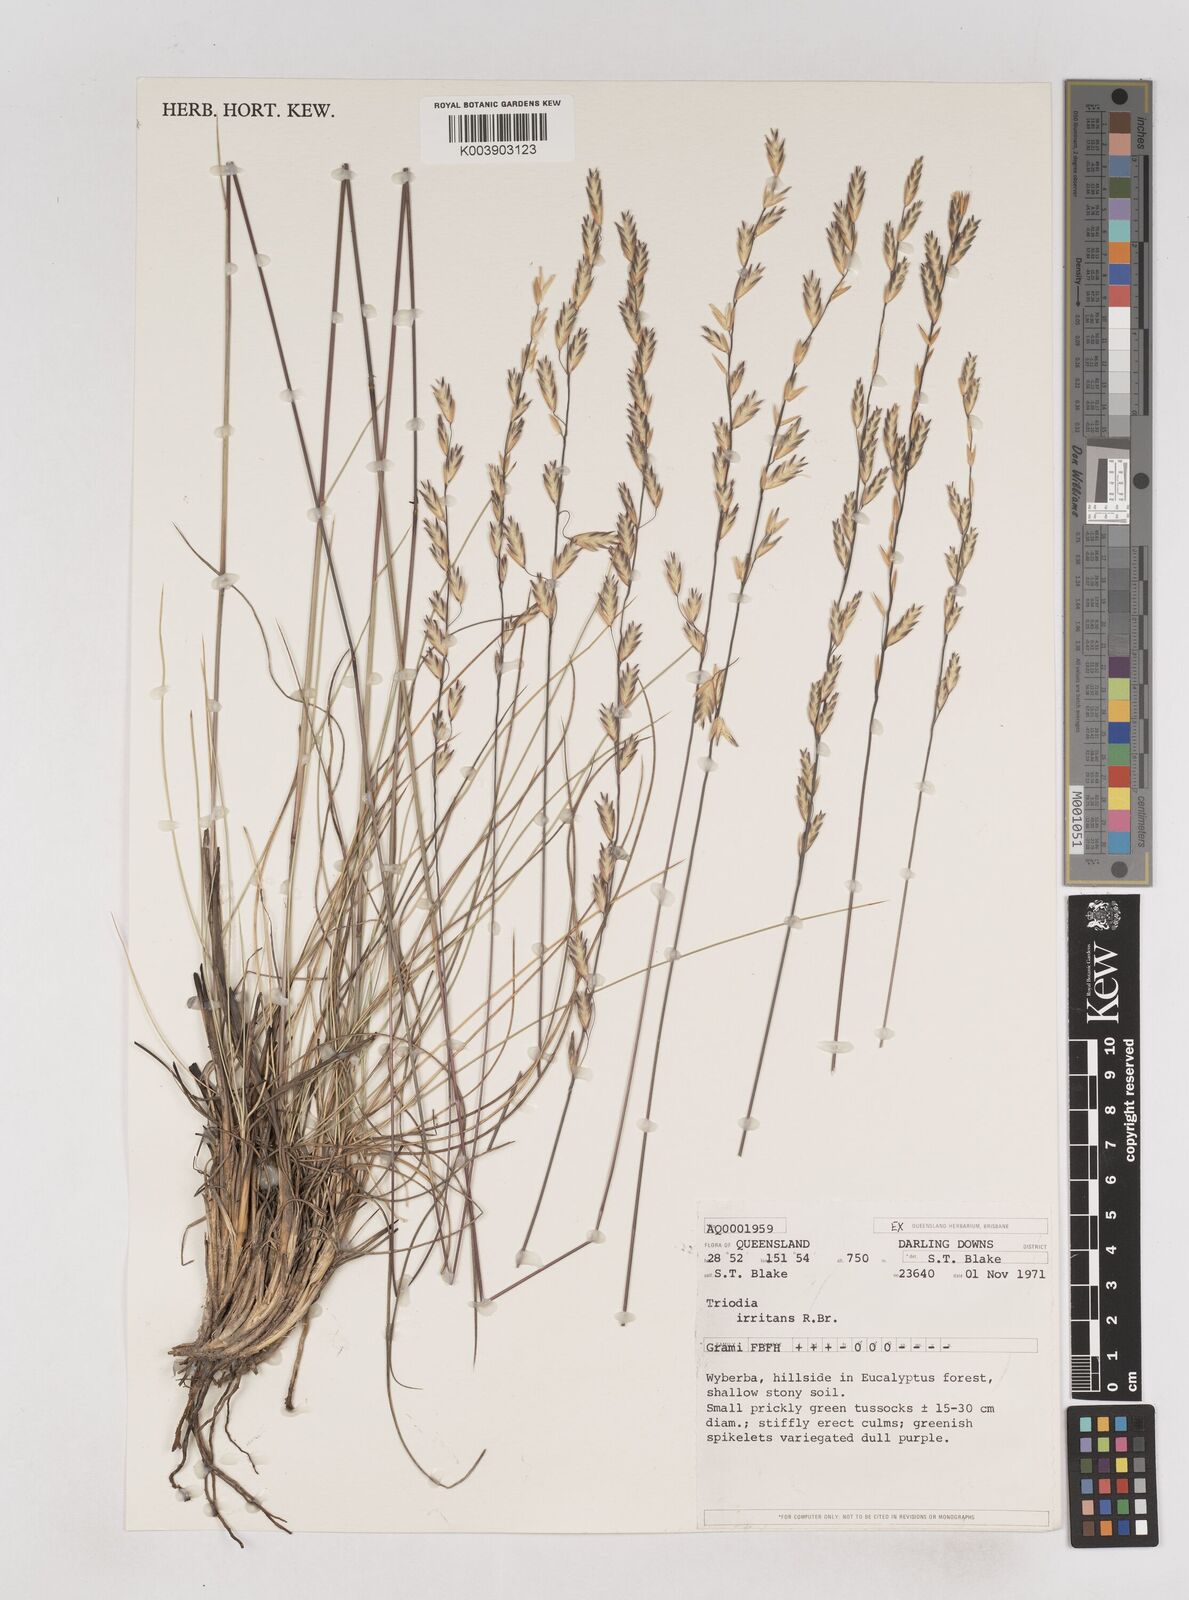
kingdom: Plantae
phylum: Tracheophyta
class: Liliopsida
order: Poales
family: Poaceae
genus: Triodia
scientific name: Triodia irritans
